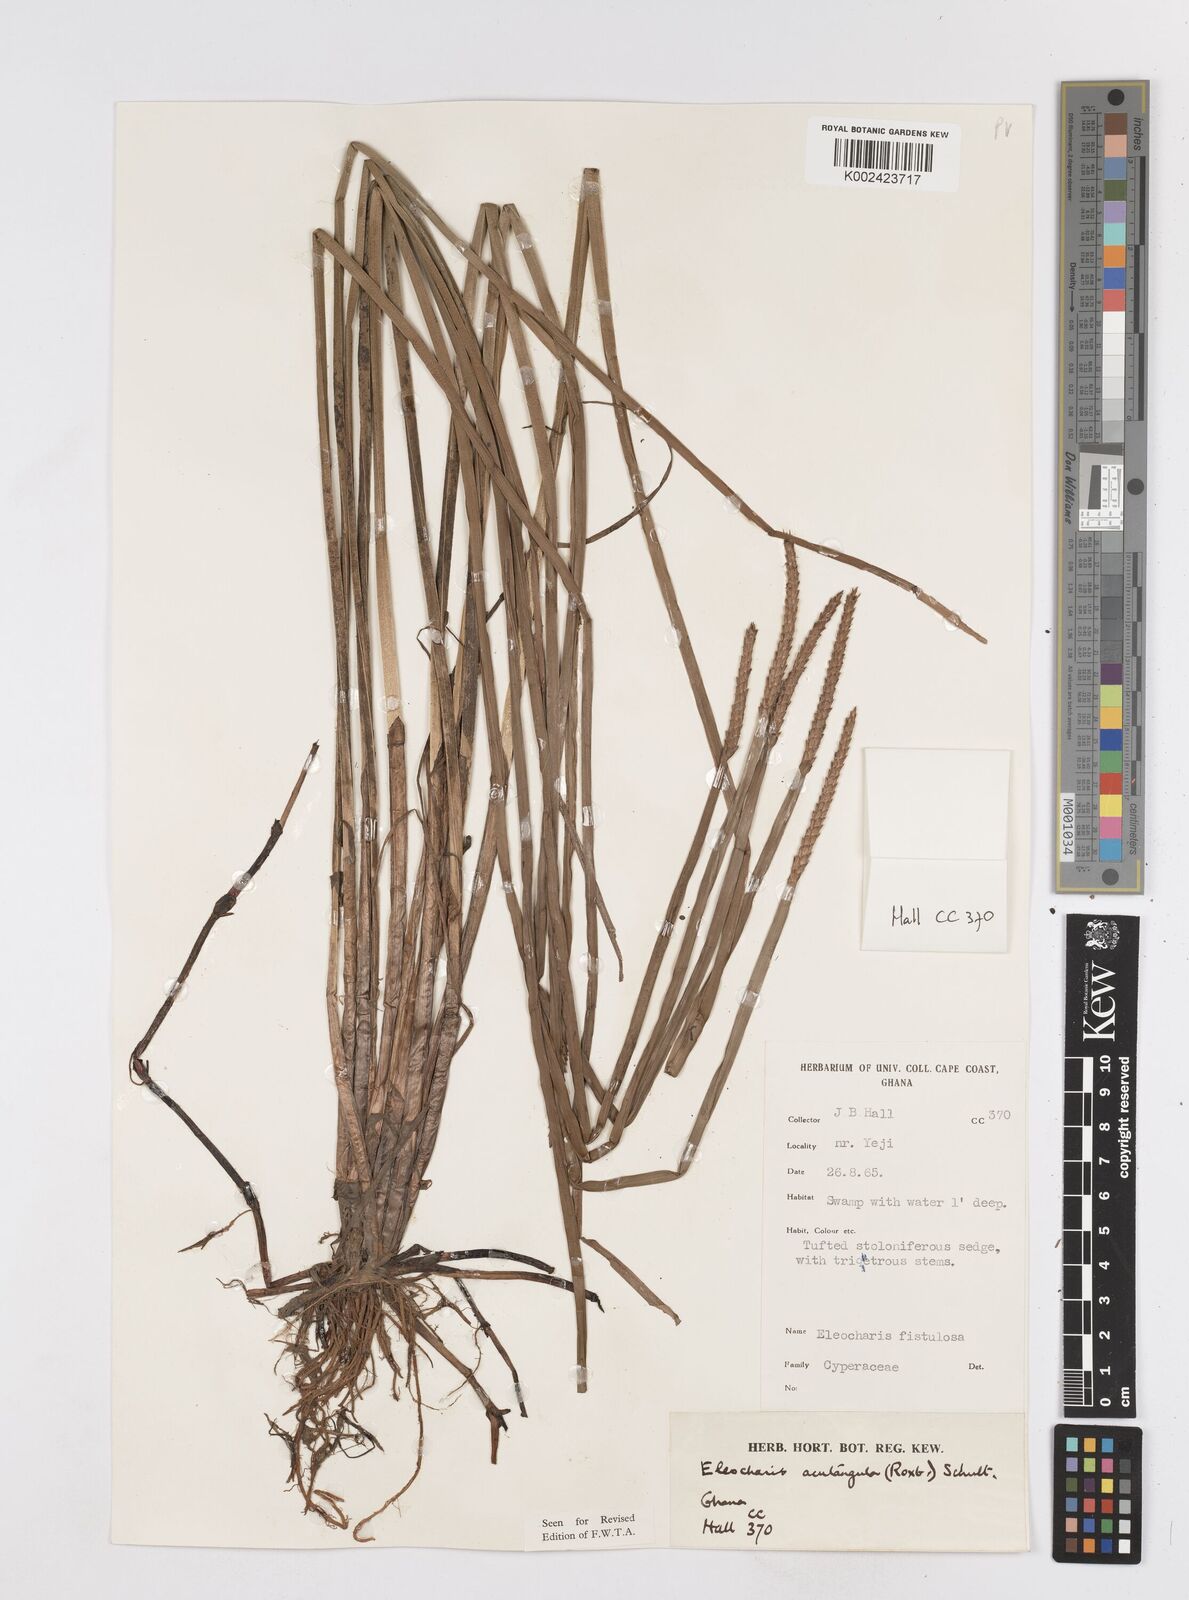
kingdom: Plantae
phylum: Tracheophyta
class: Liliopsida
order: Poales
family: Cyperaceae
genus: Eleocharis
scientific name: Eleocharis acutangula
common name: Acute spikerush
